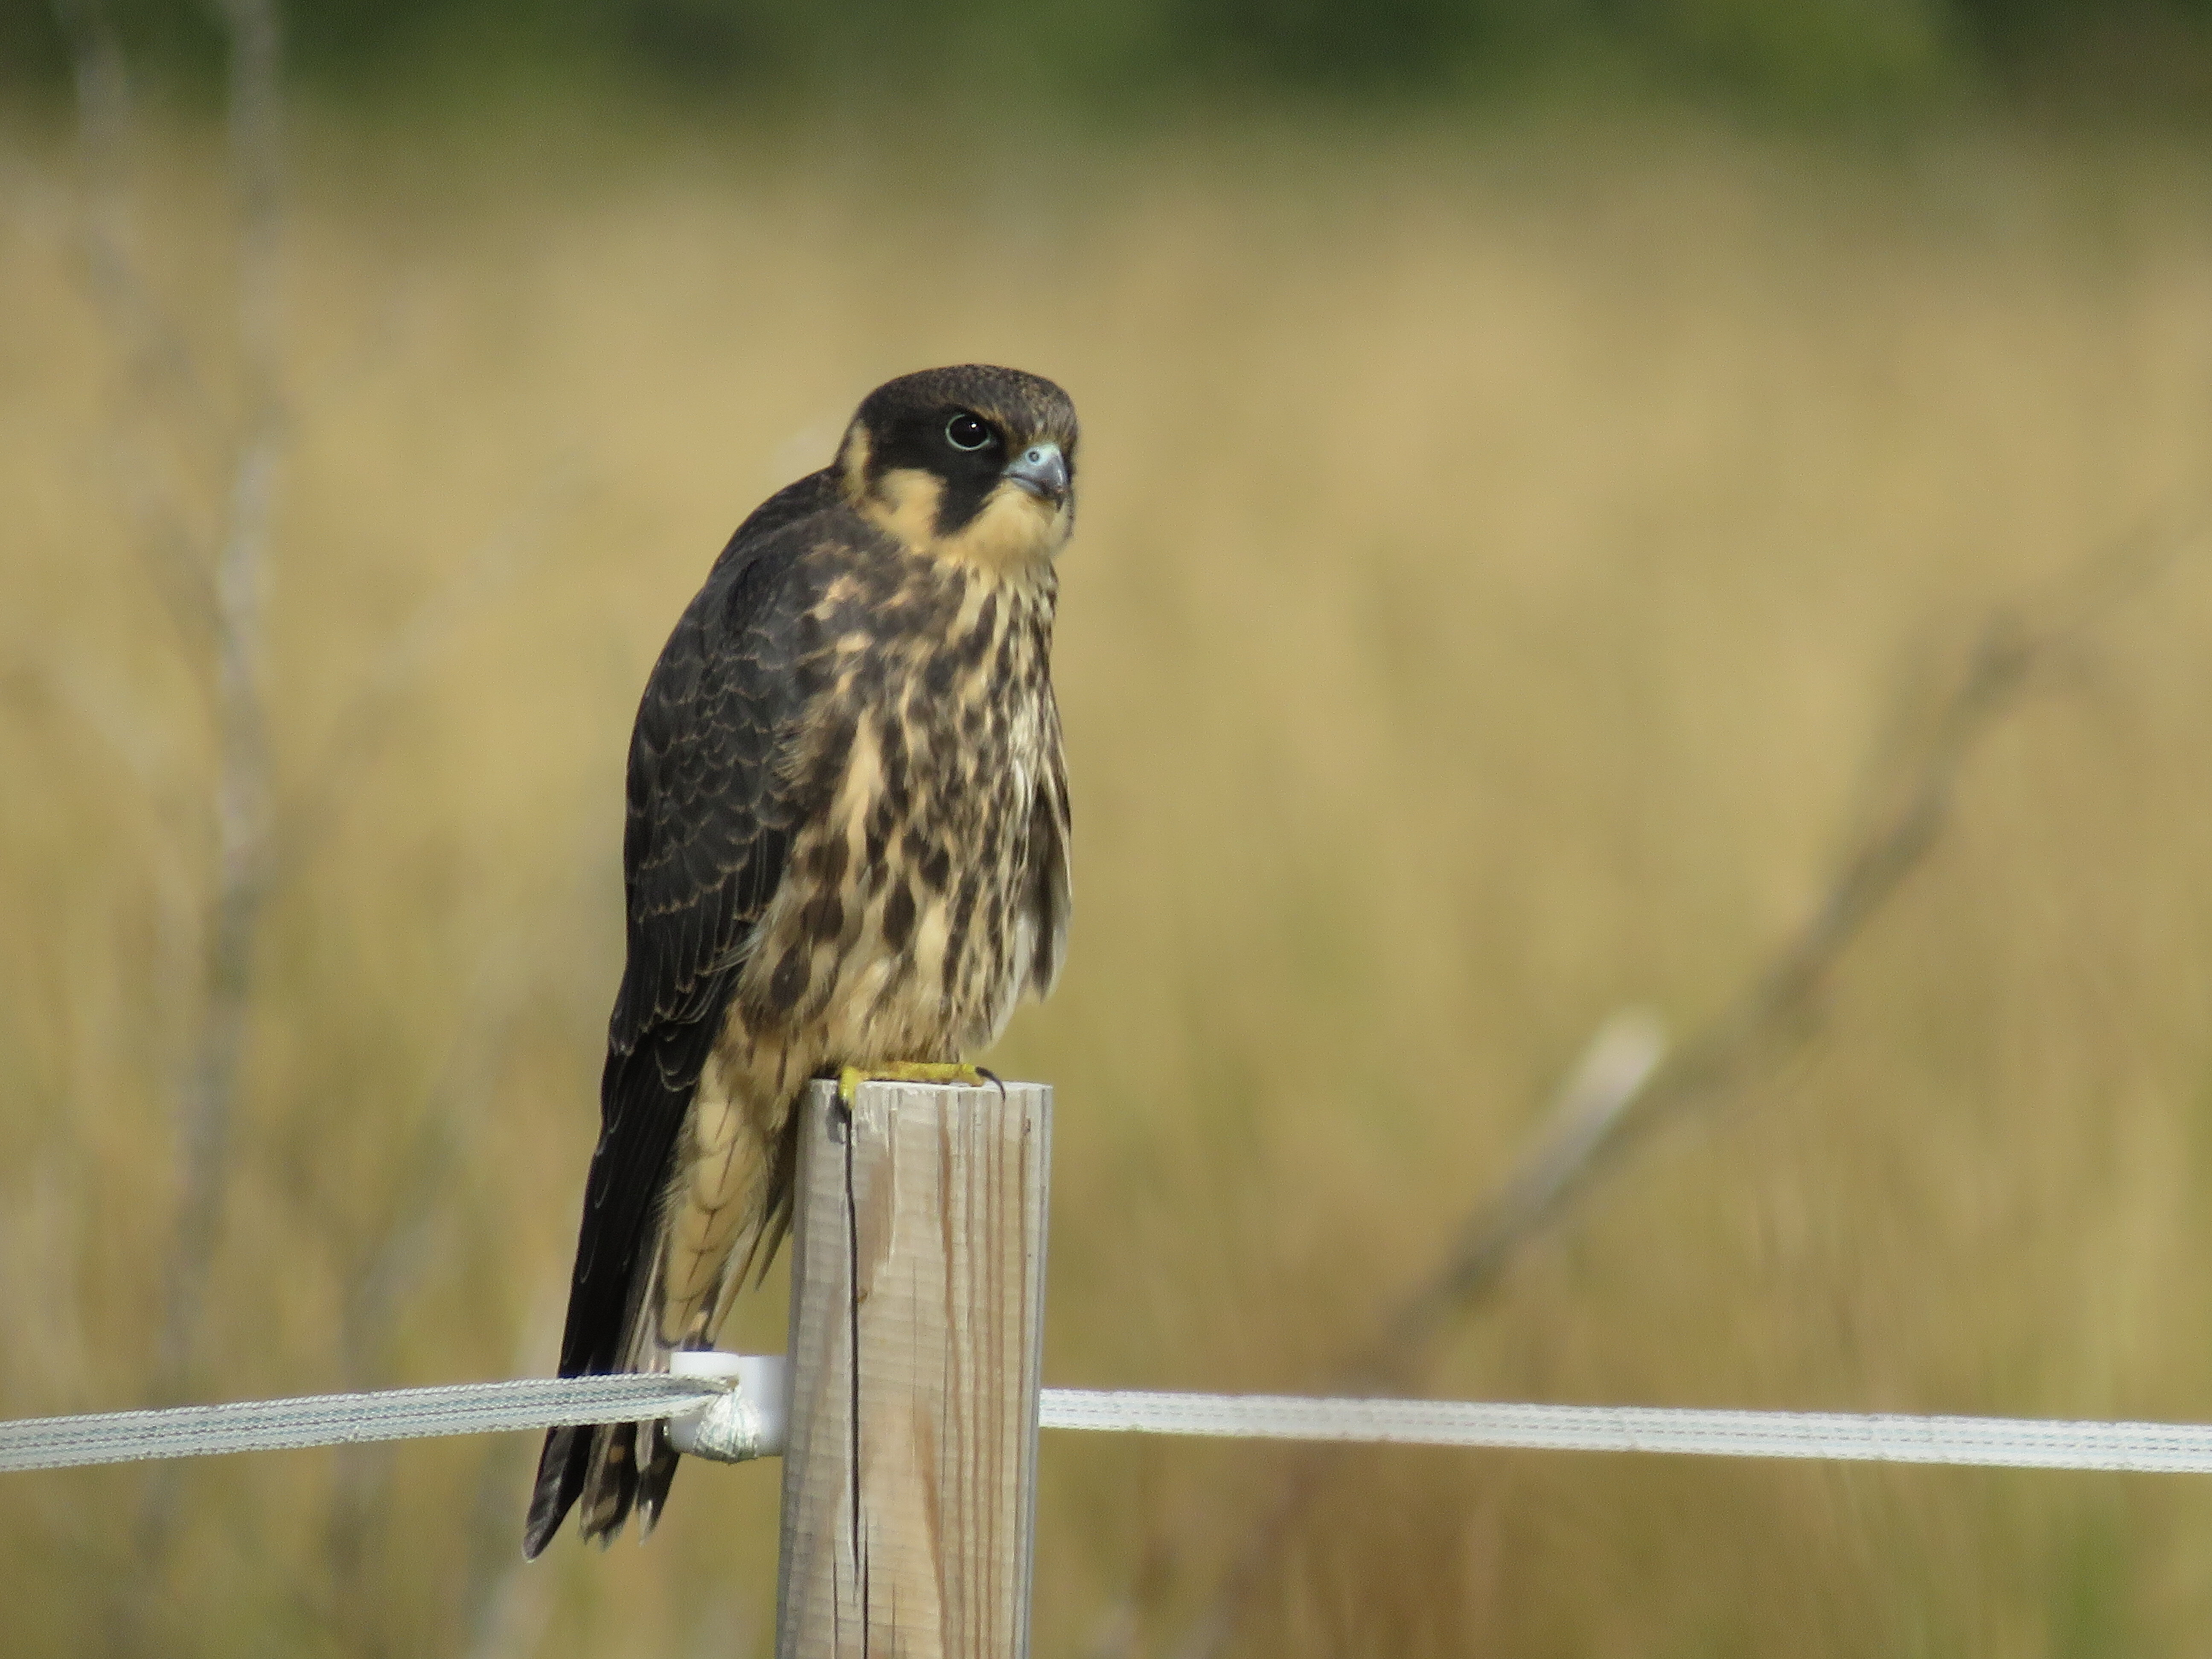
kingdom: Animalia
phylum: Chordata
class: Aves
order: Falconiformes
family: Falconidae
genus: Falco
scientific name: Falco subbuteo
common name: Eurasian hobby
